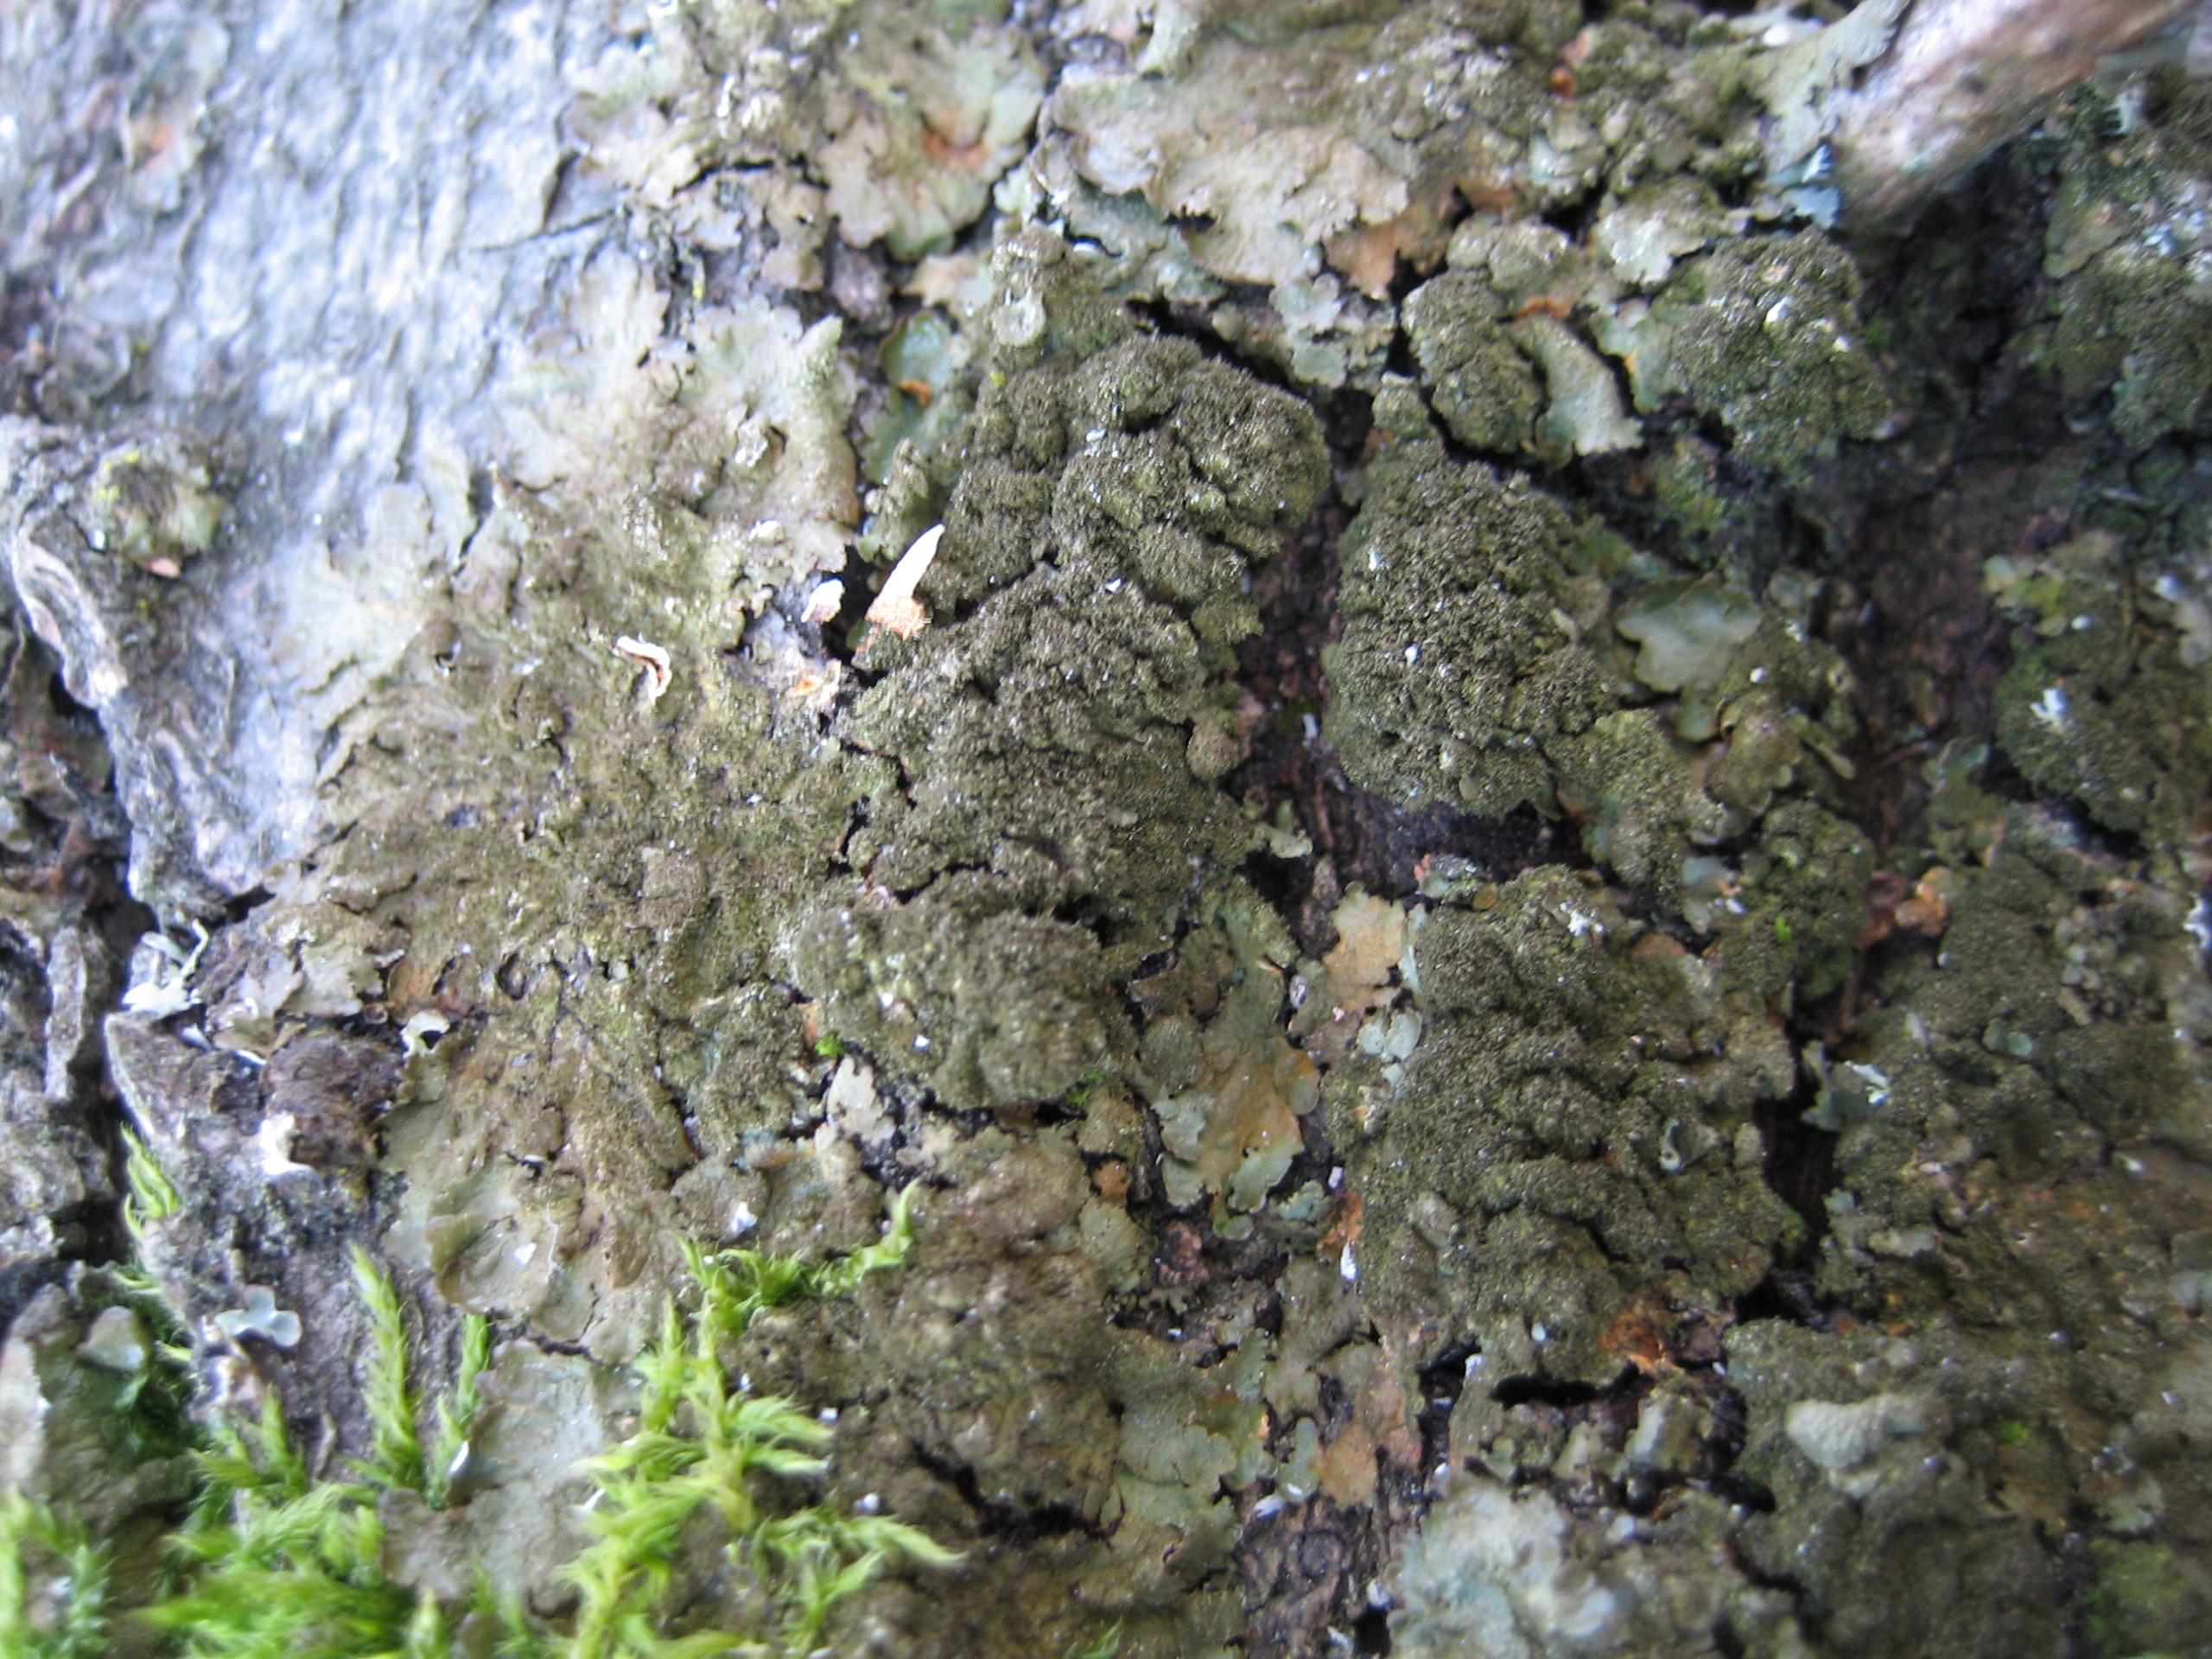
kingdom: Fungi
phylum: Ascomycota
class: Lecanoromycetes
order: Lecanorales
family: Parmeliaceae
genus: Melanelixia
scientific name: Melanelixia glabratula
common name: Glinsende skållav
